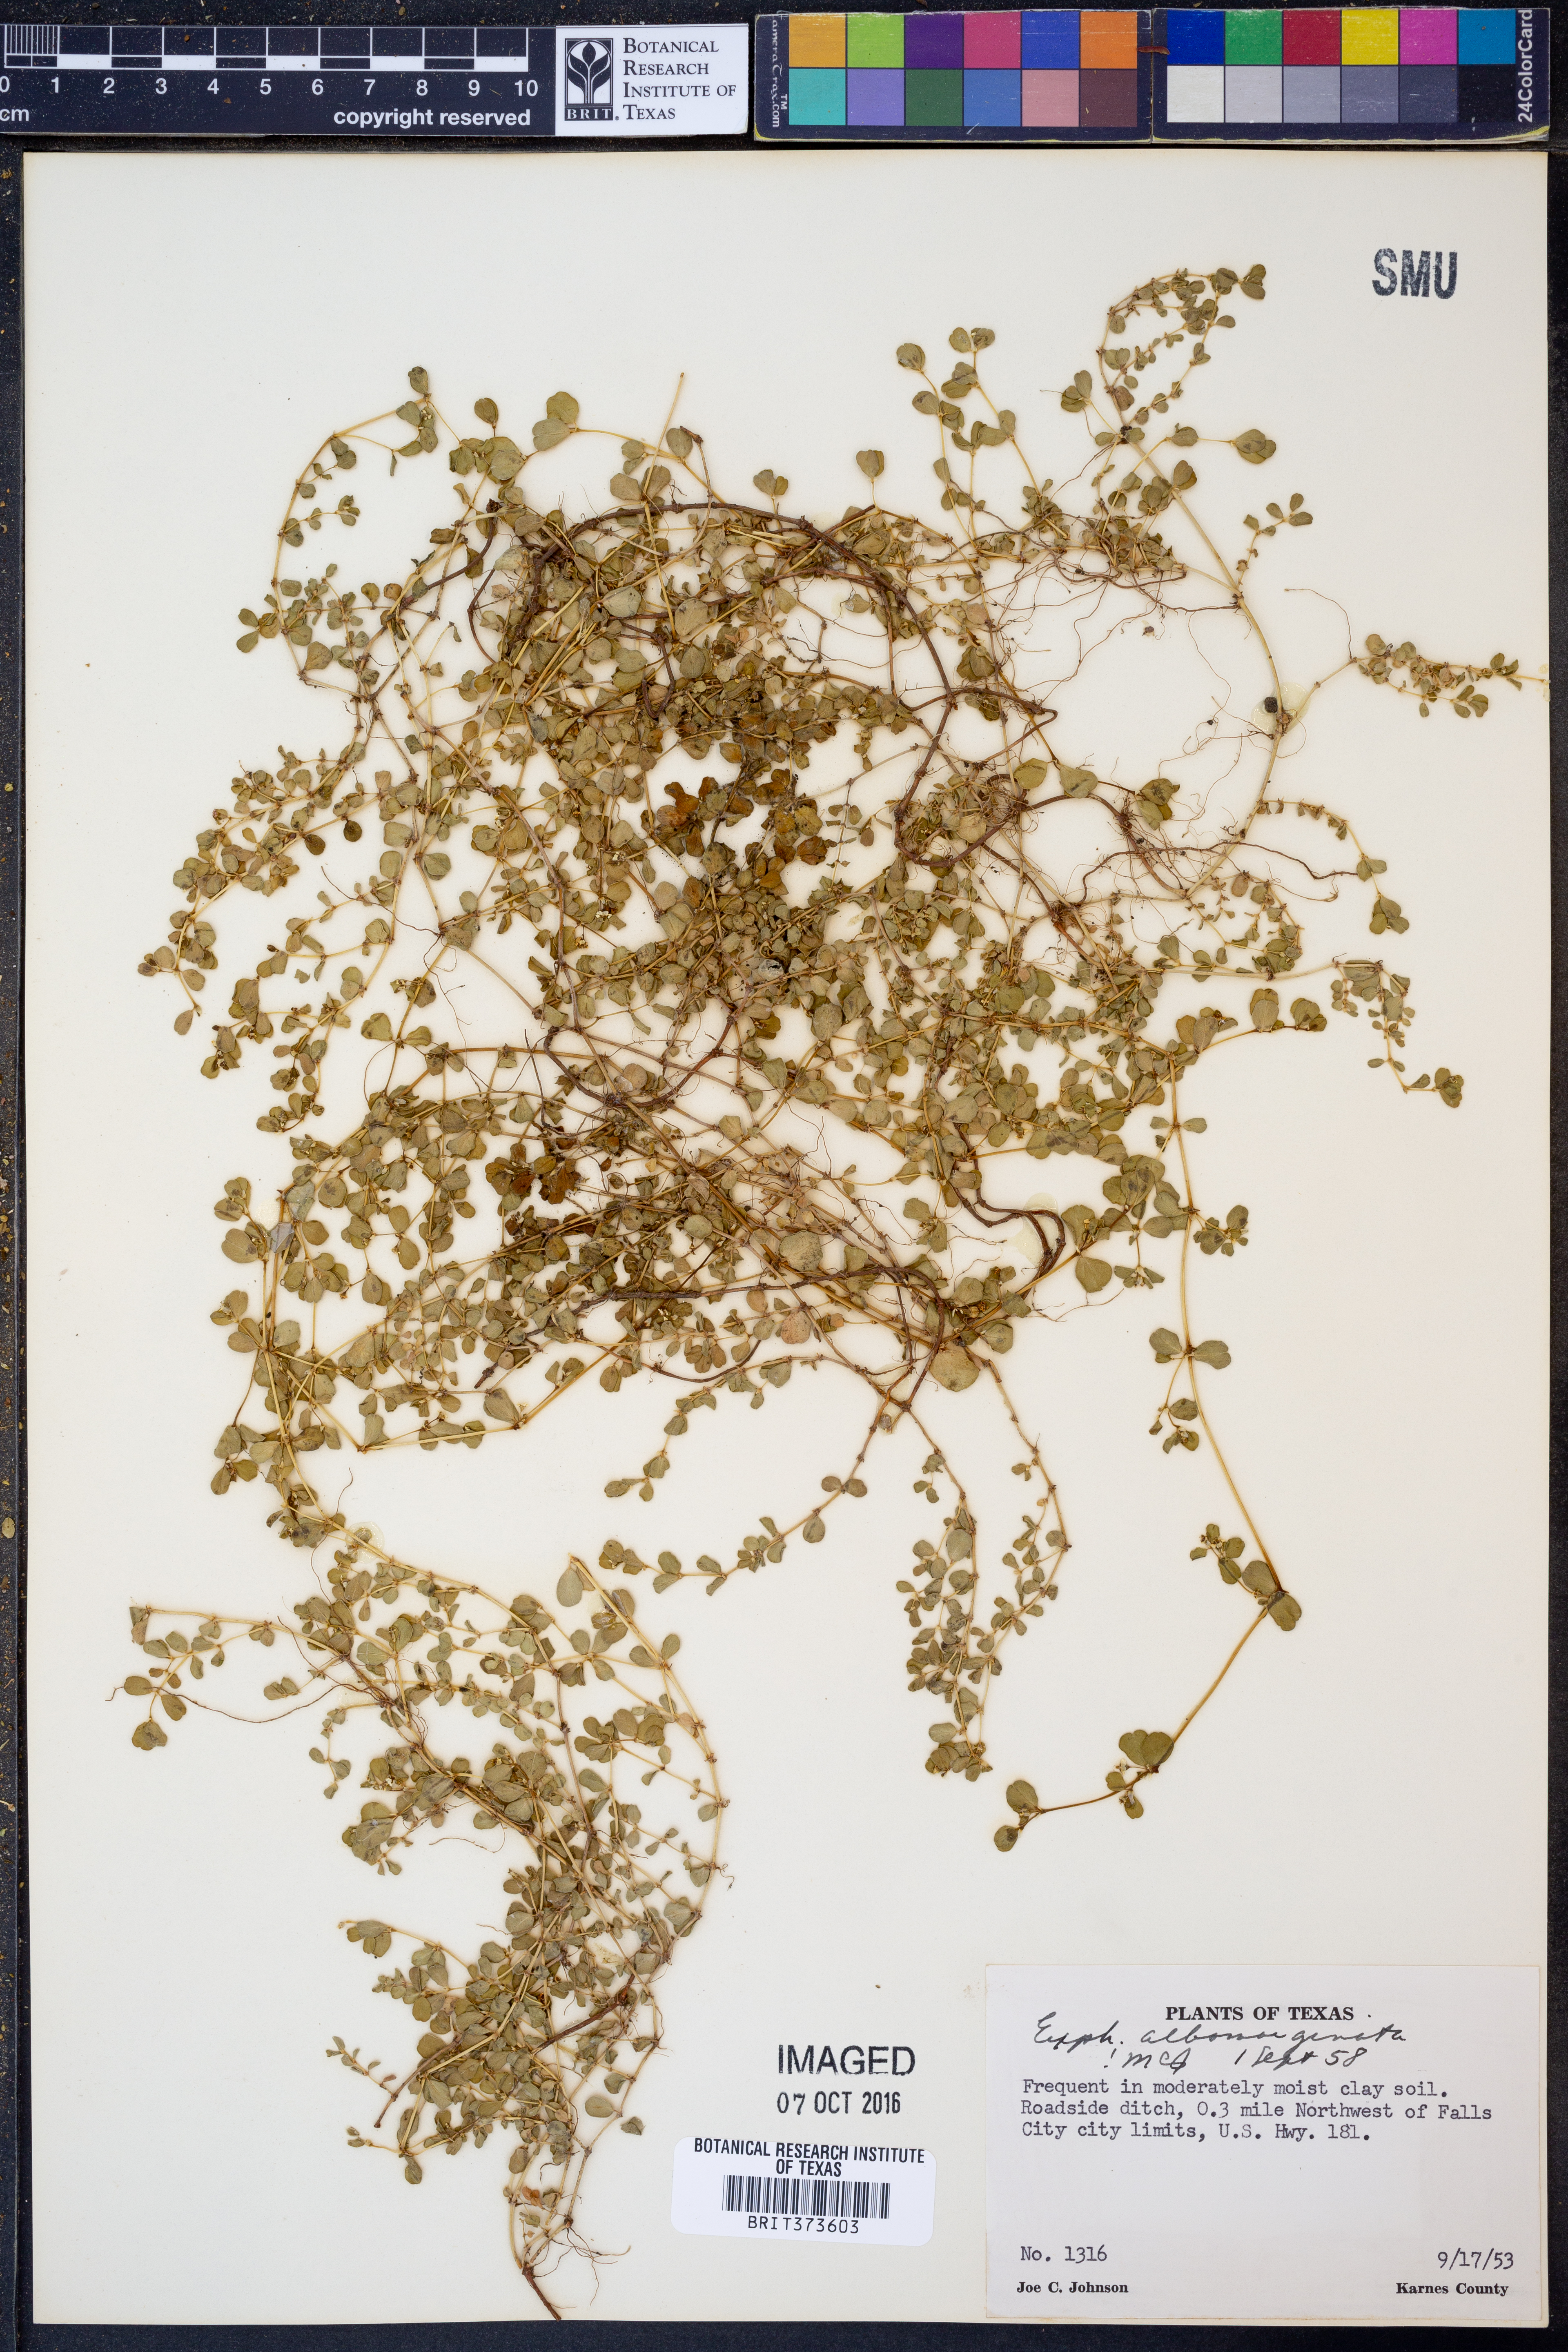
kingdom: Plantae
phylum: Tracheophyta
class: Magnoliopsida
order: Malpighiales
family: Euphorbiaceae
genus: Euphorbia
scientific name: Euphorbia albomarginata
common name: Whitemargin sandmat
